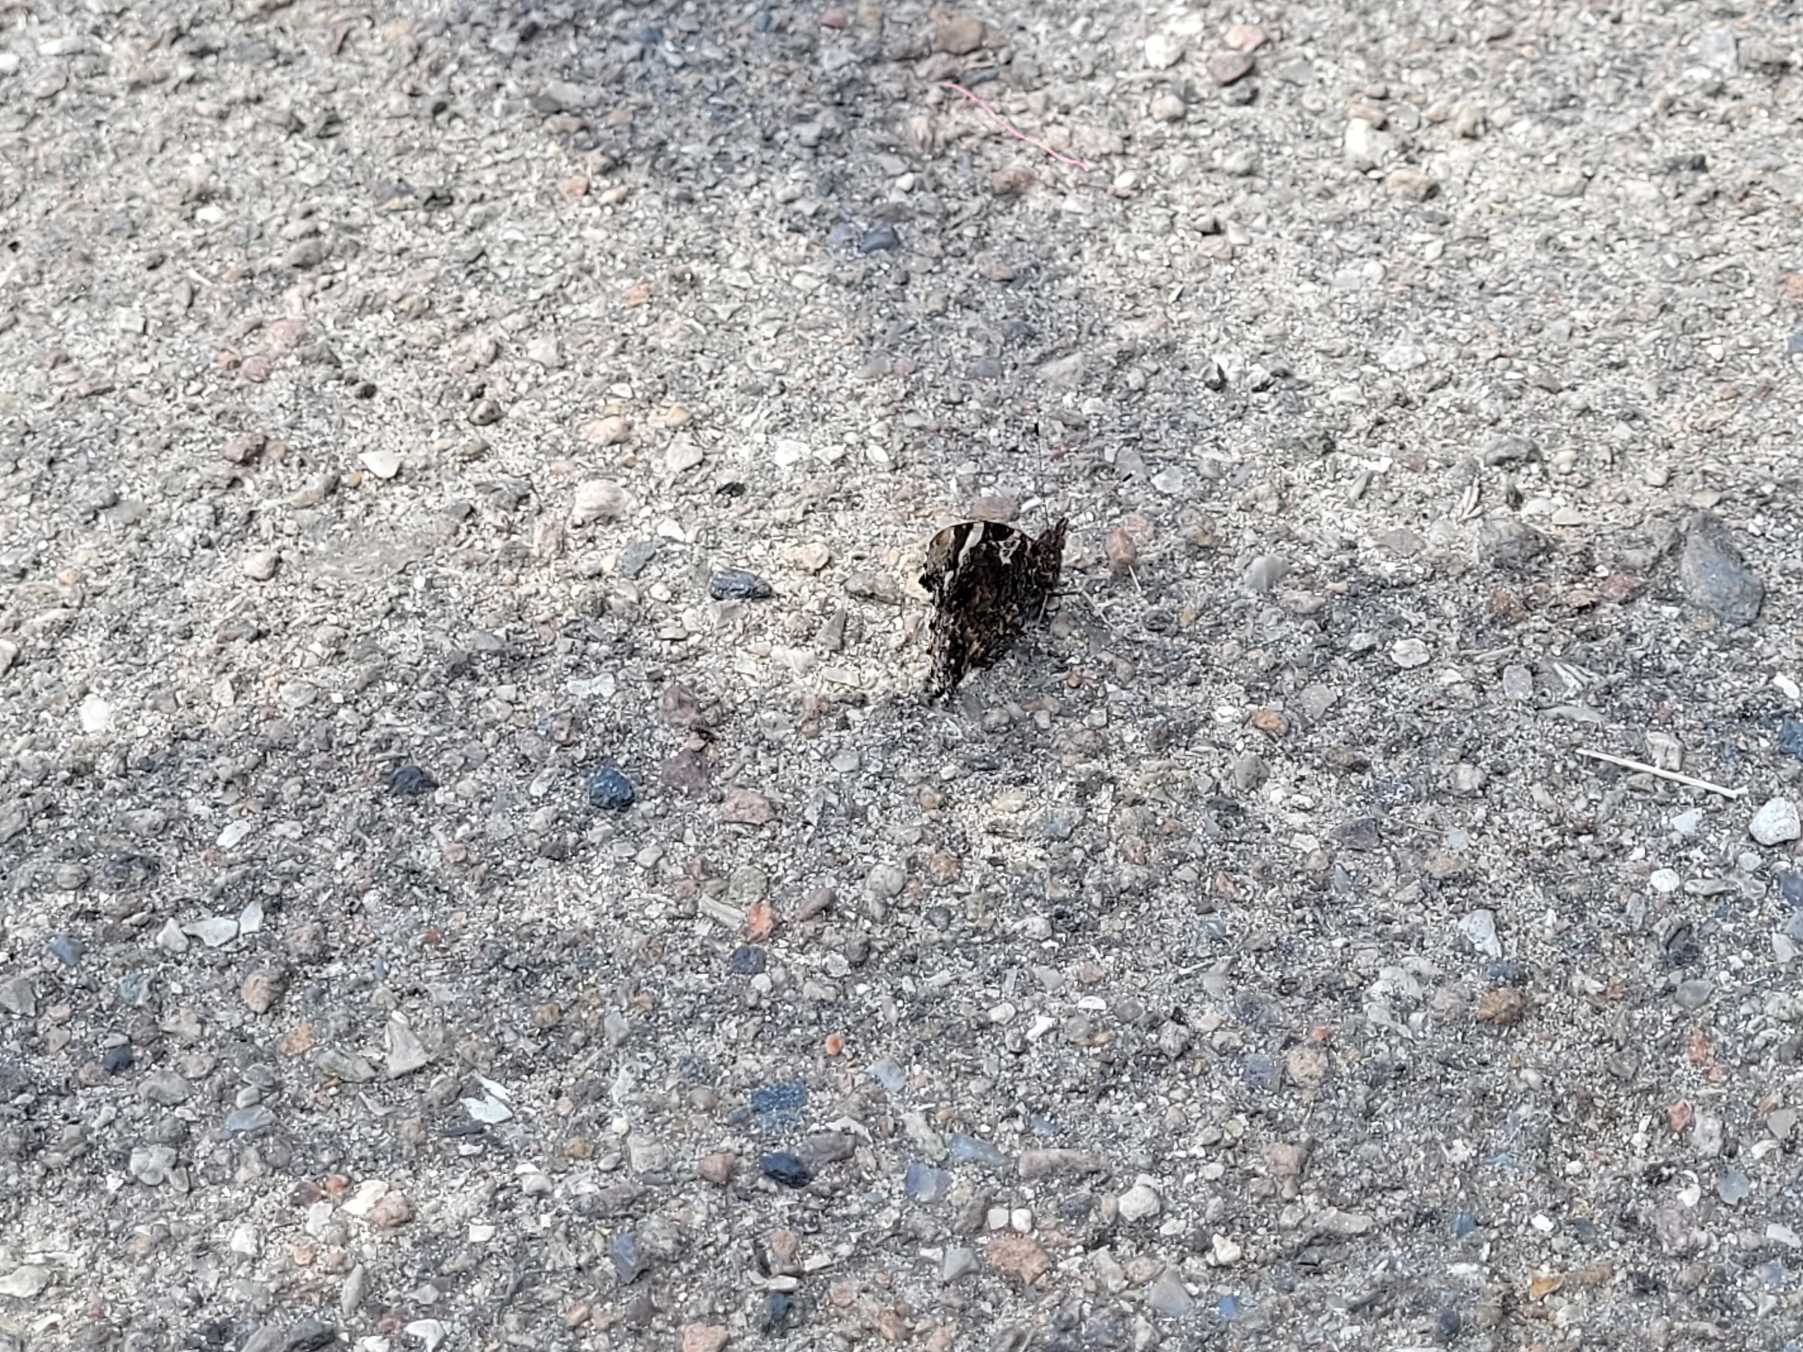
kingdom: Animalia
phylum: Arthropoda
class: Insecta
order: Lepidoptera
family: Nymphalidae
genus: Vanessa
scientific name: Vanessa atalanta
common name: Admiral
